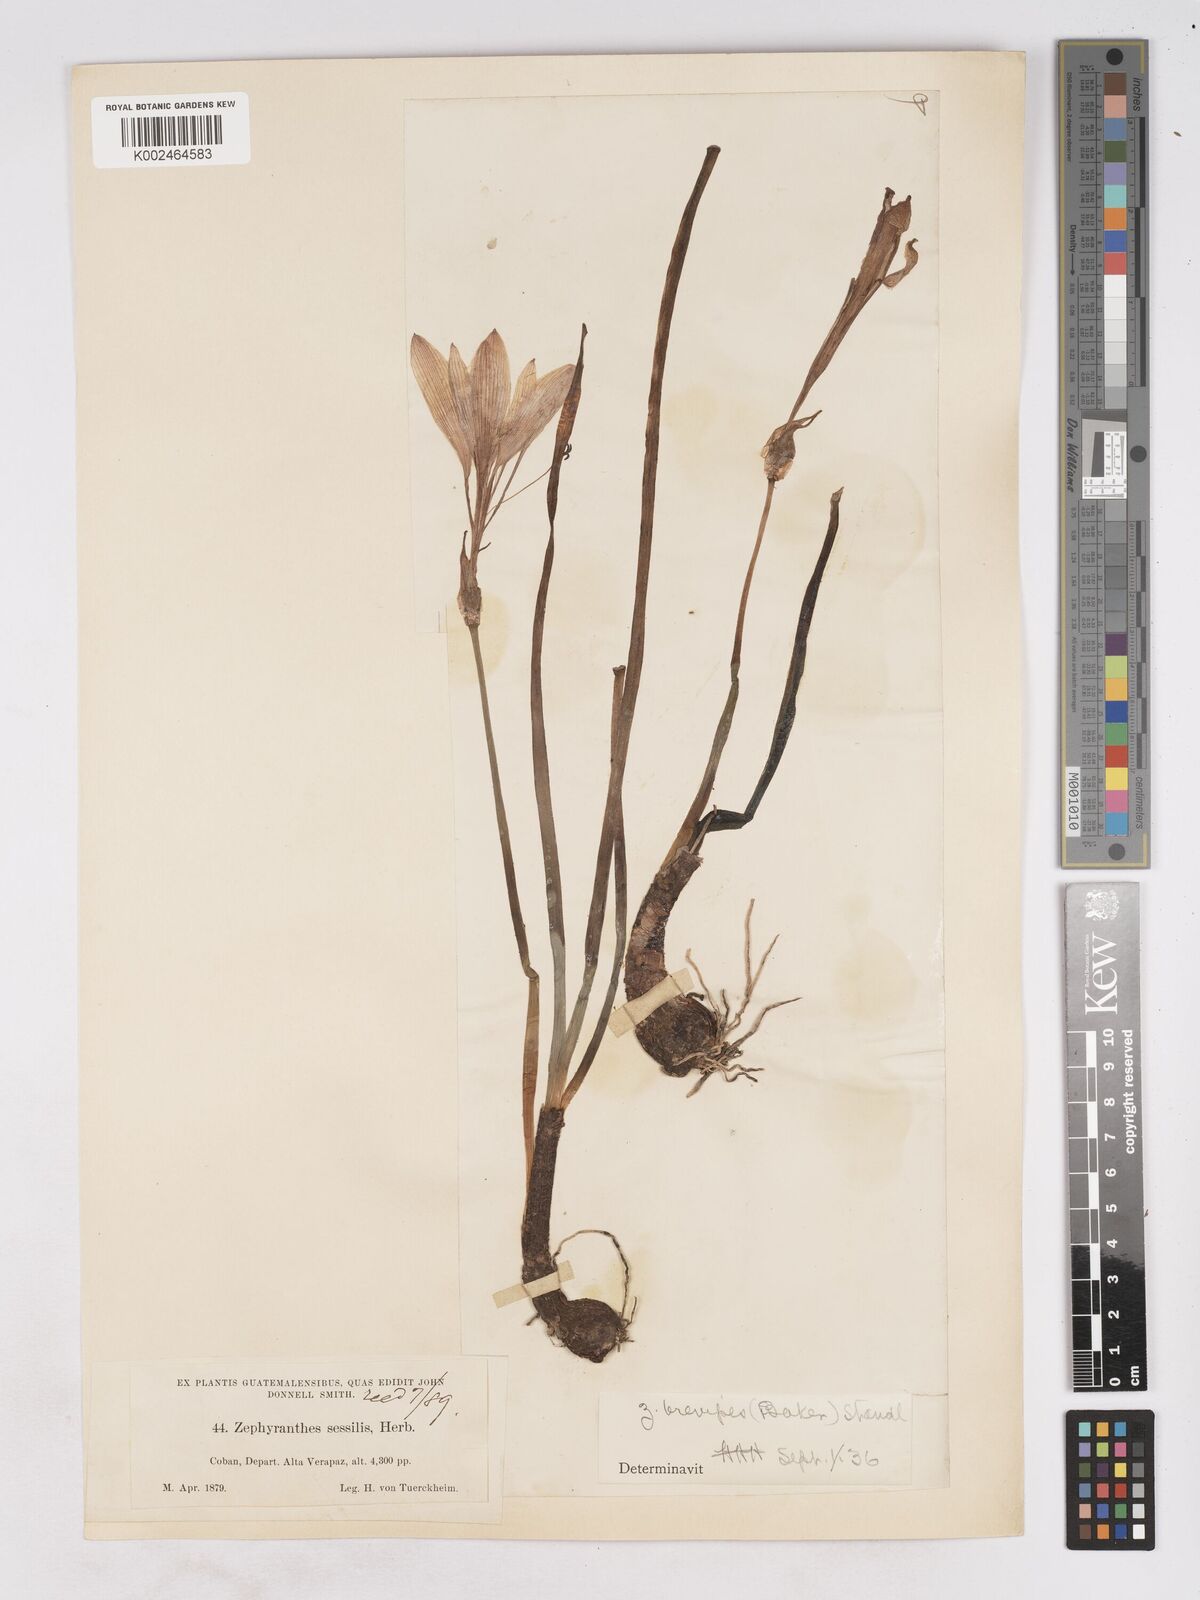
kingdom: Plantae
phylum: Tracheophyta
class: Liliopsida
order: Asparagales
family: Amaryllidaceae
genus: Zephyranthes
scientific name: Zephyranthes brevipes
